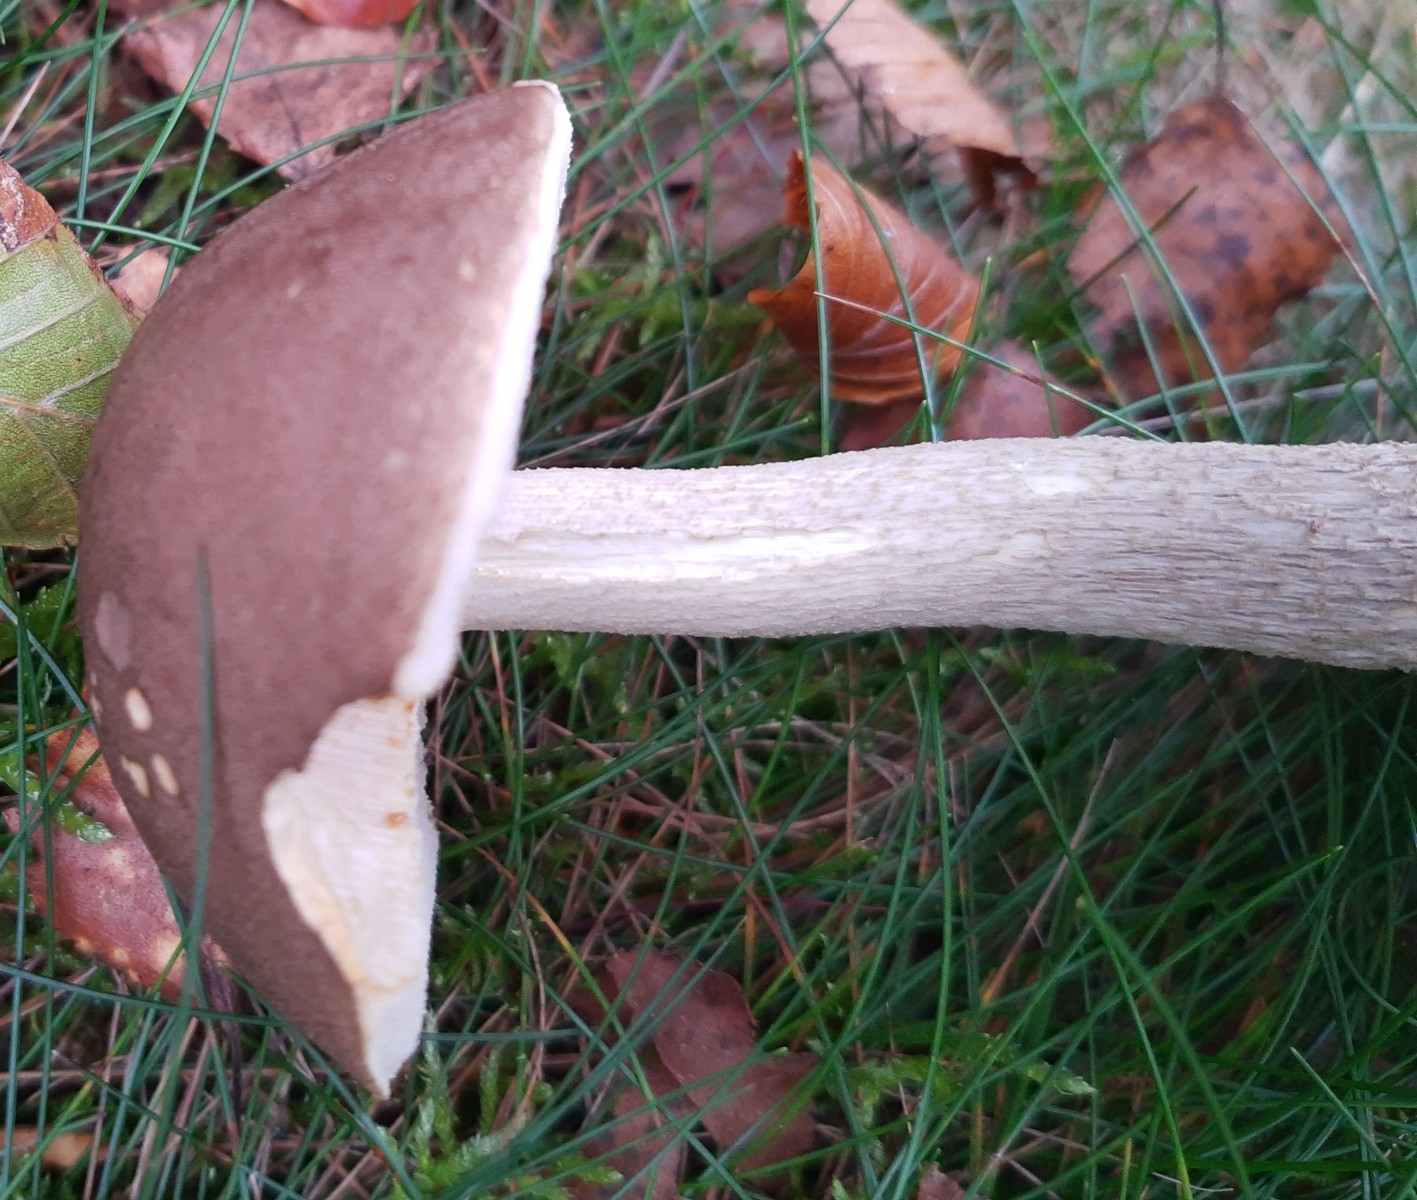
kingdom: Fungi
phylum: Basidiomycota
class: Agaricomycetes
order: Boletales
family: Boletaceae
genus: Leccinum
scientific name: Leccinum cyaneobasileucum
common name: almindelig skælrørhat
